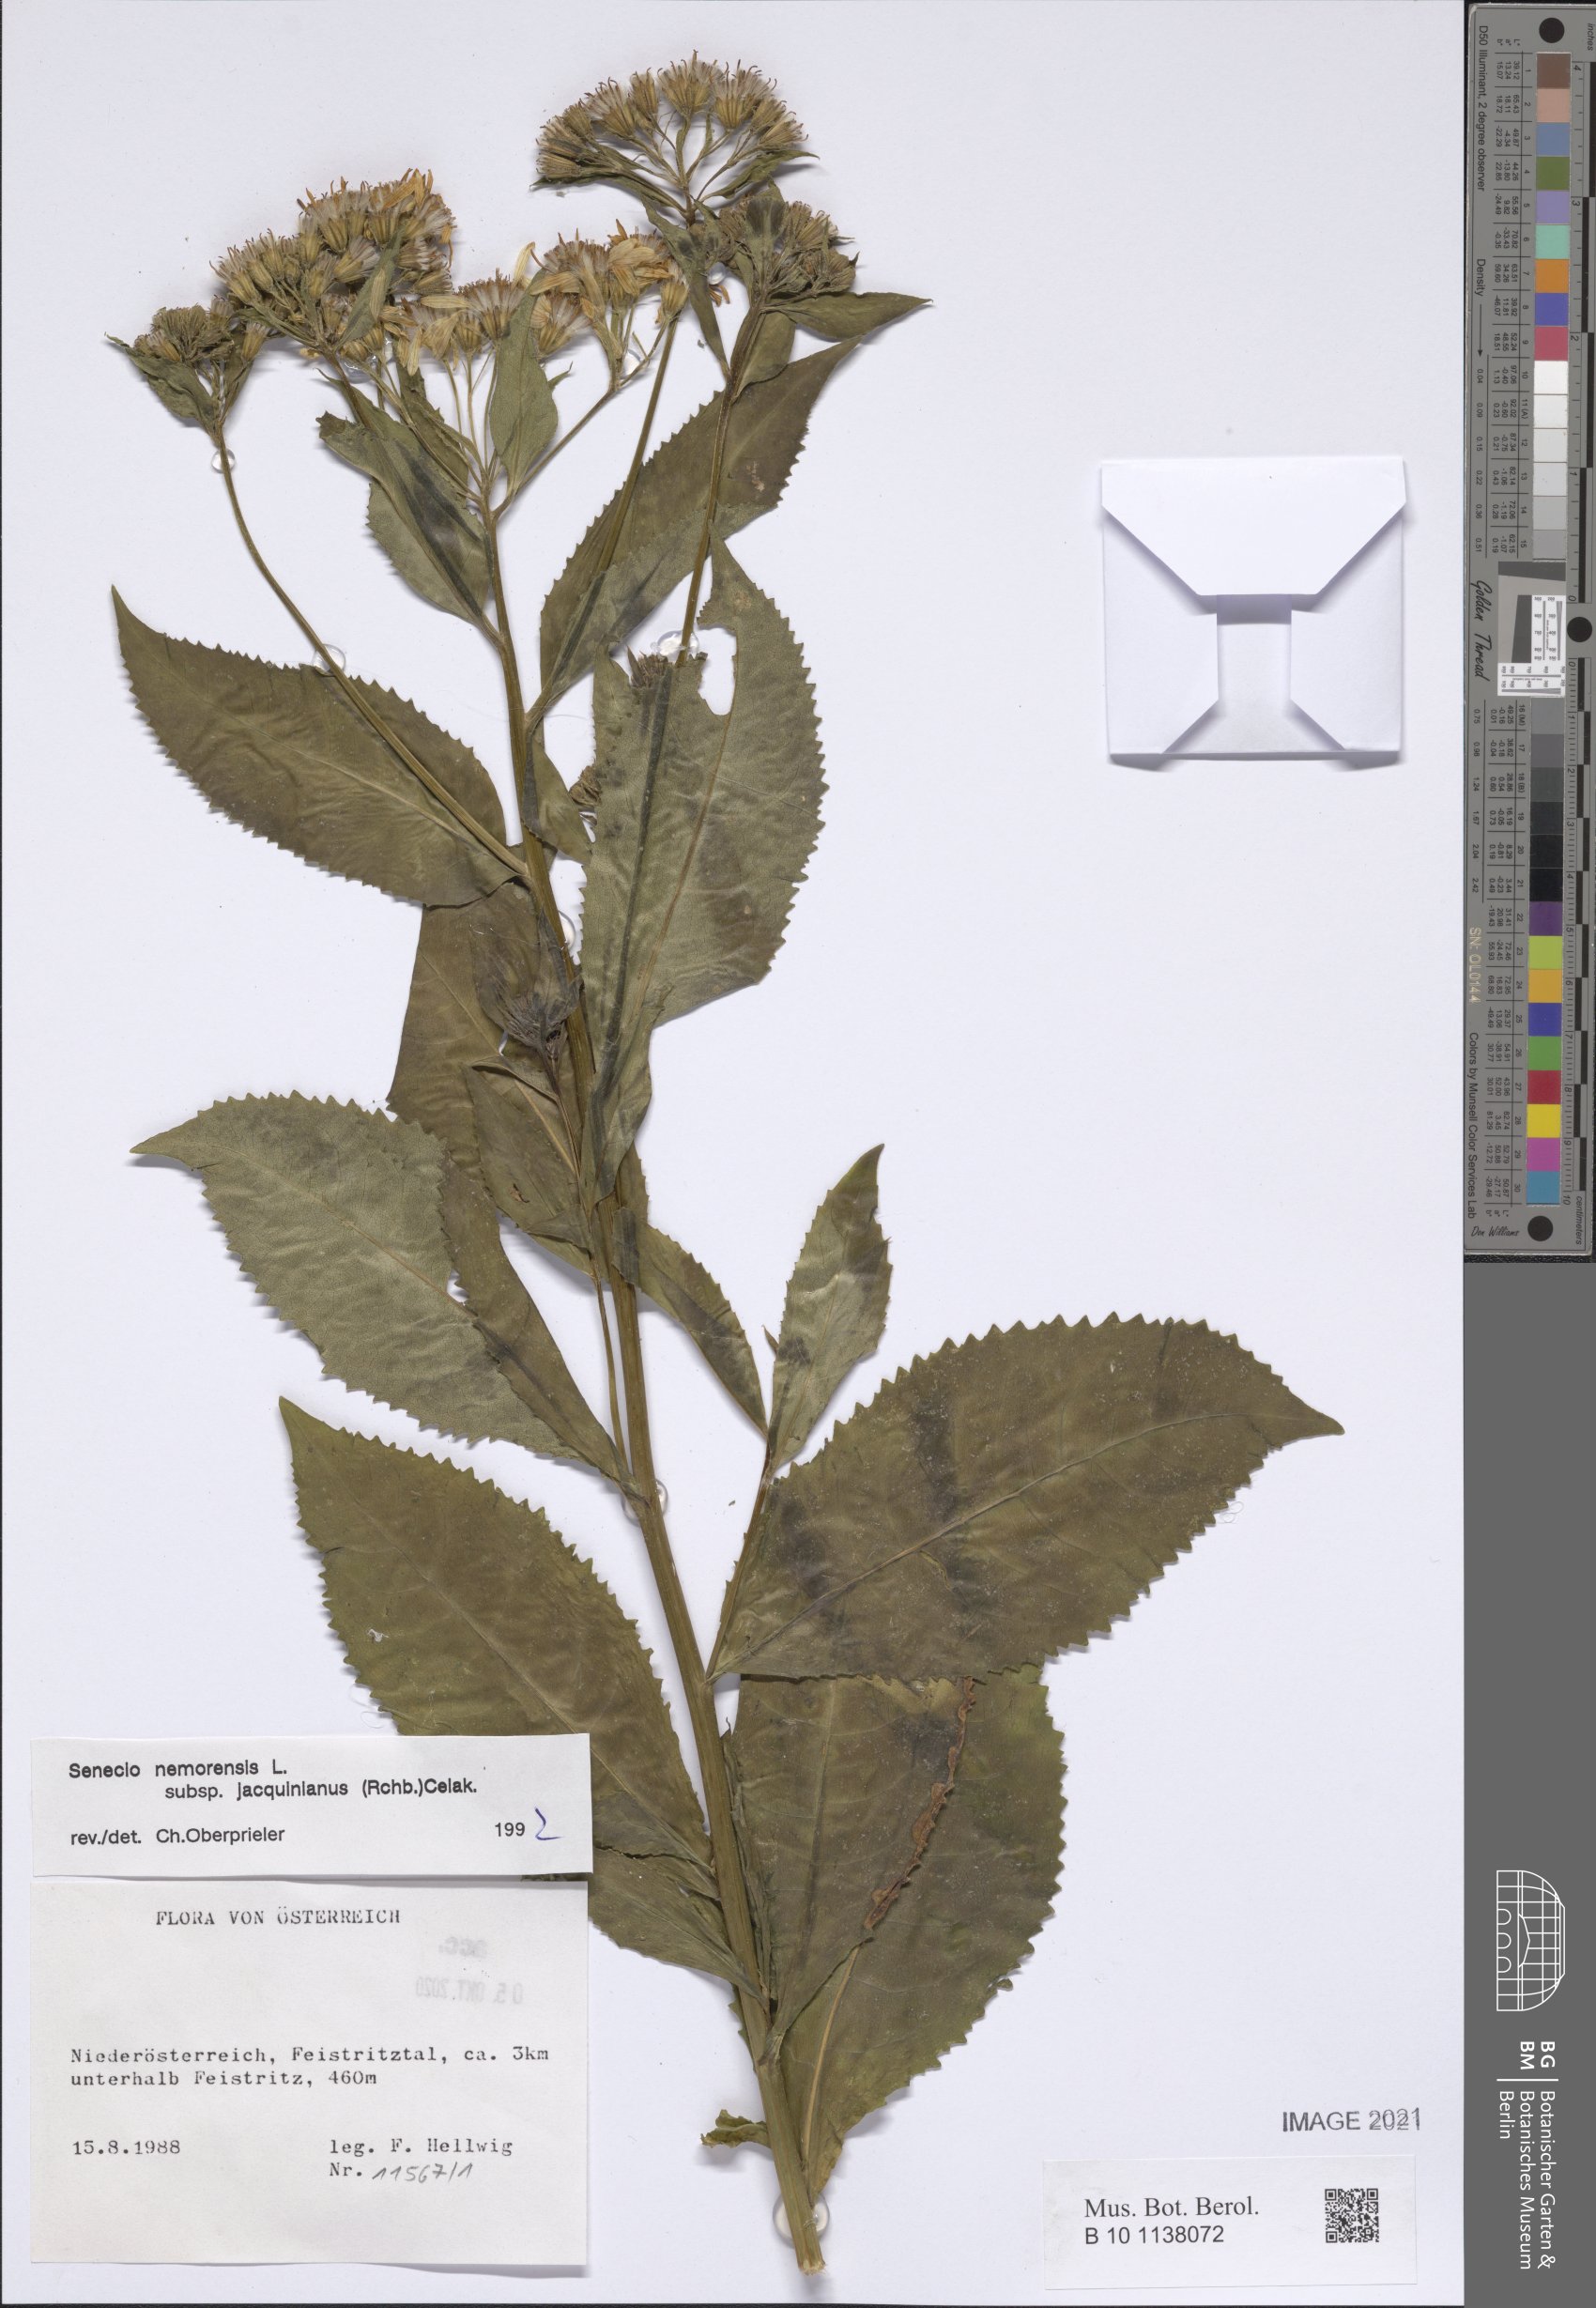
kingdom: Plantae
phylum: Tracheophyta
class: Magnoliopsida
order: Asterales
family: Asteraceae
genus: Senecio
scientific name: Senecio germanicus
